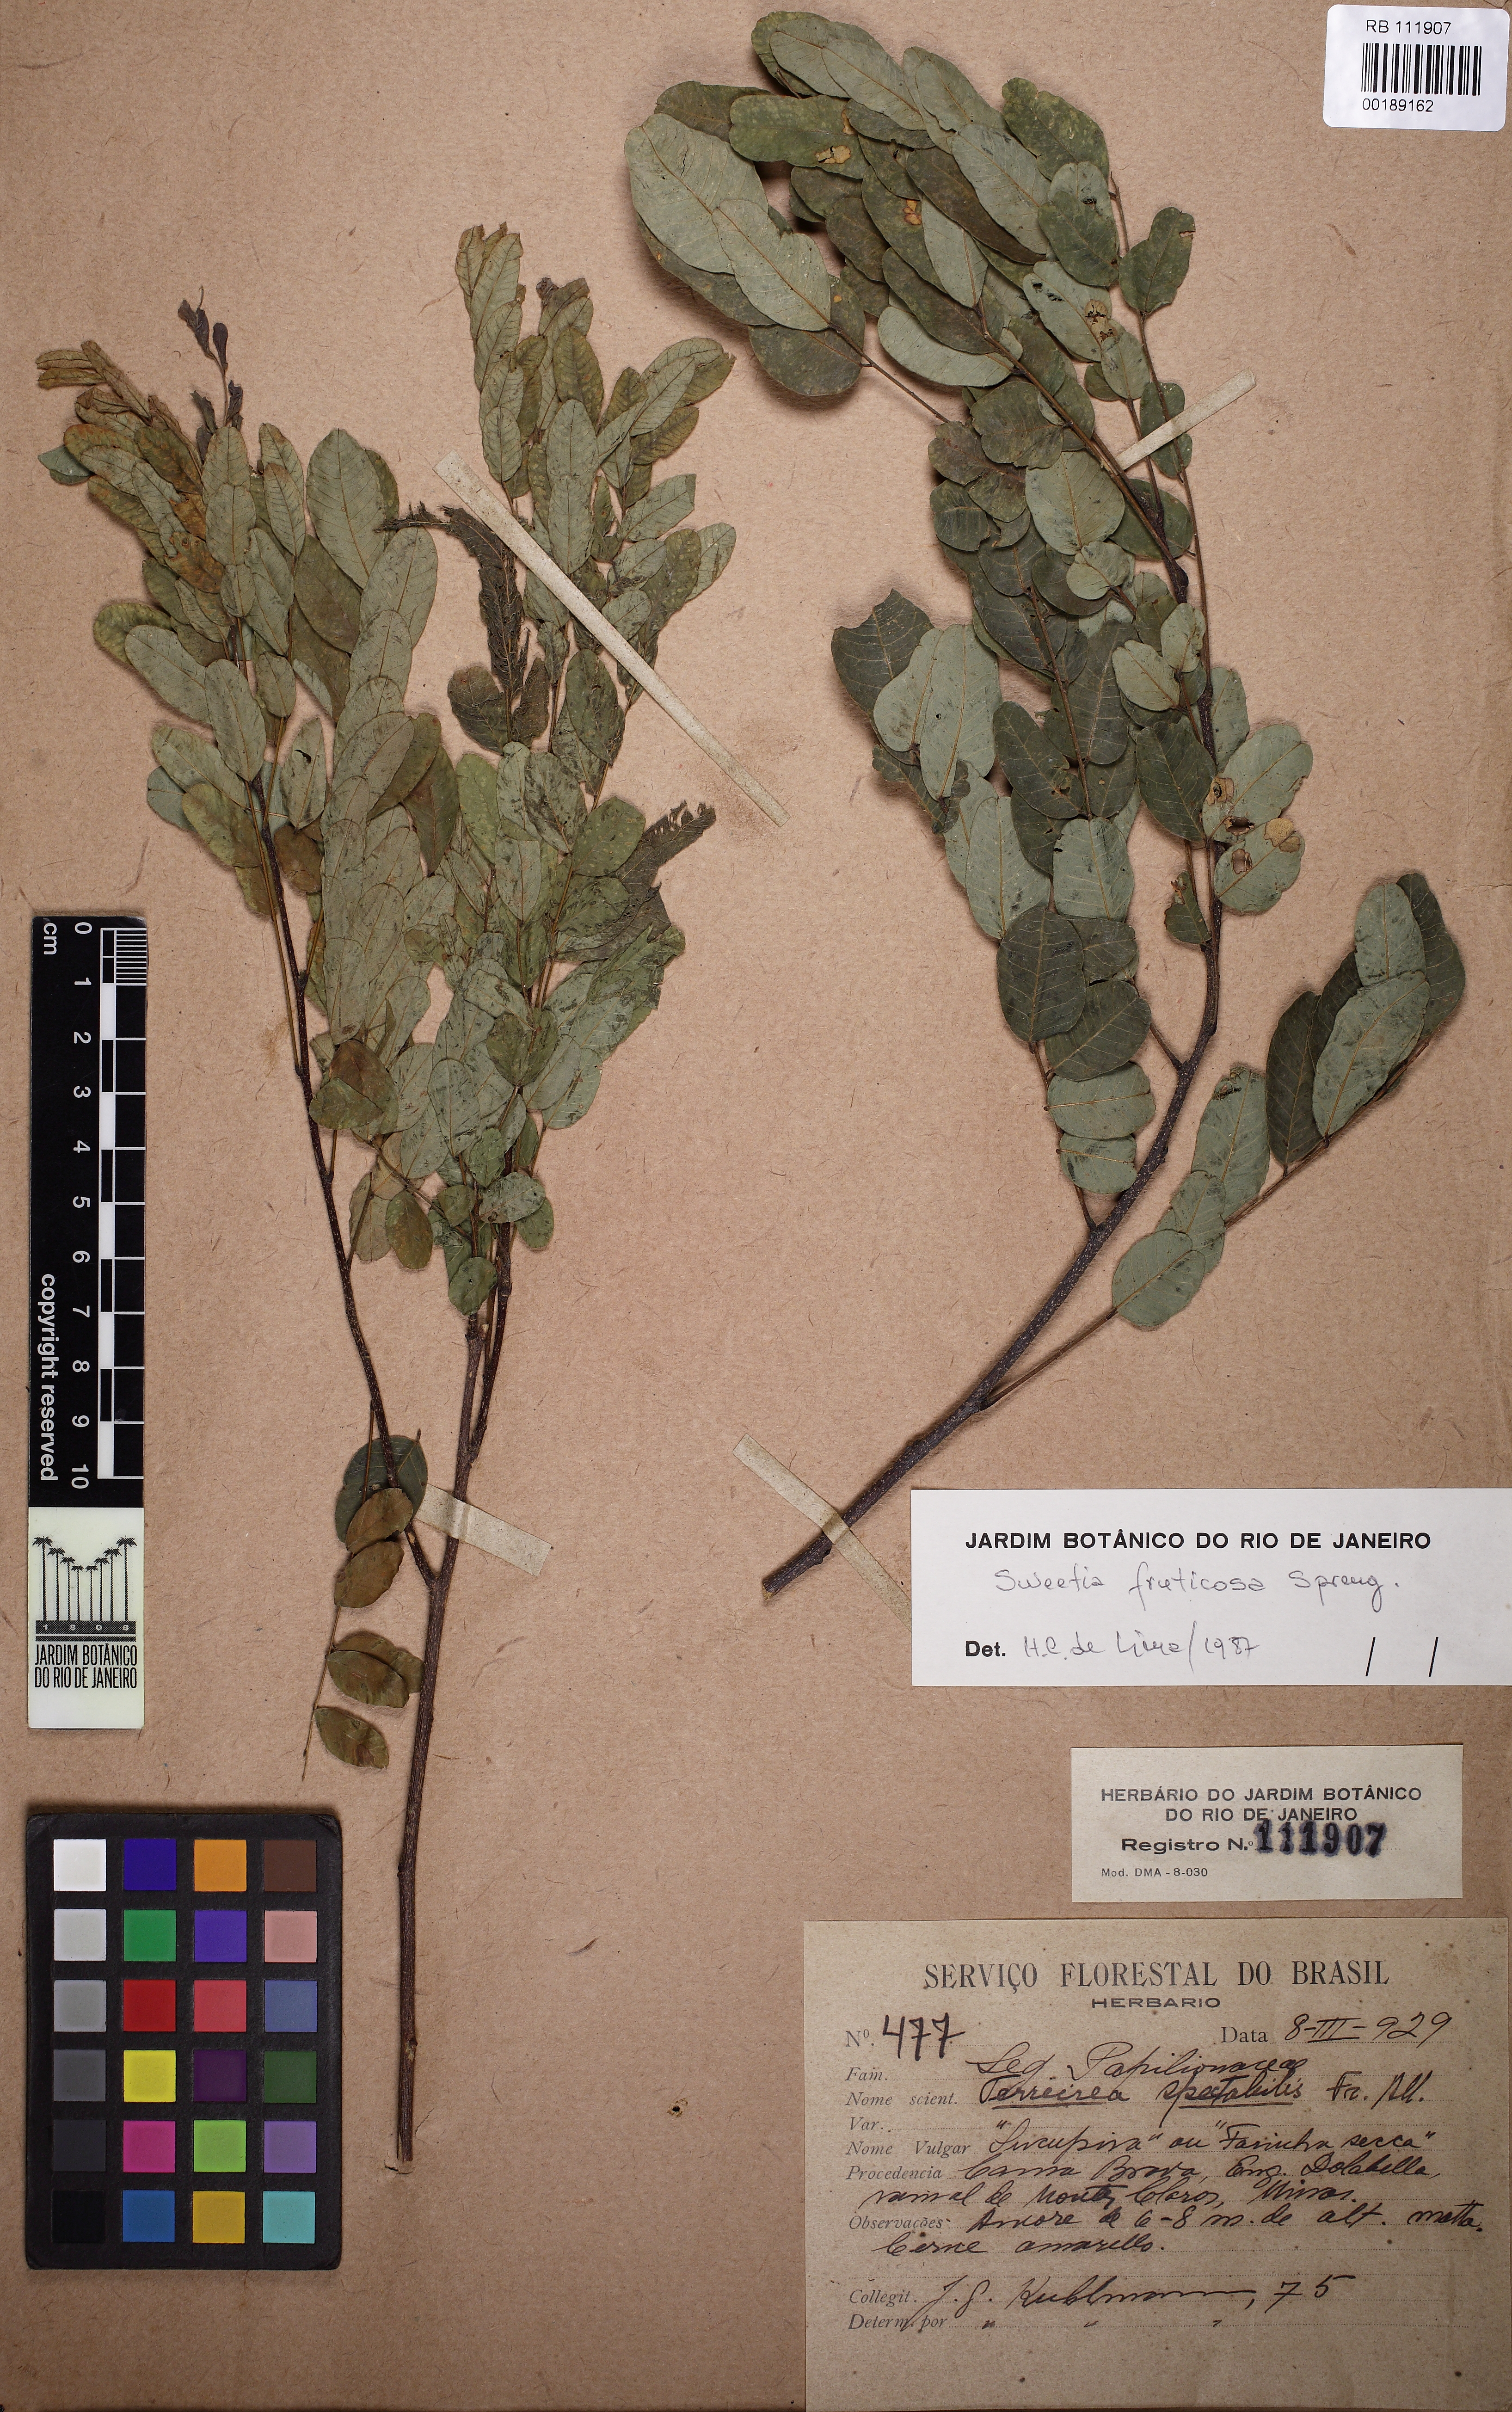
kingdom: Plantae
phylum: Tracheophyta
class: Magnoliopsida
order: Fabales
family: Fabaceae
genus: Sweetia
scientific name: Sweetia fruticosa
